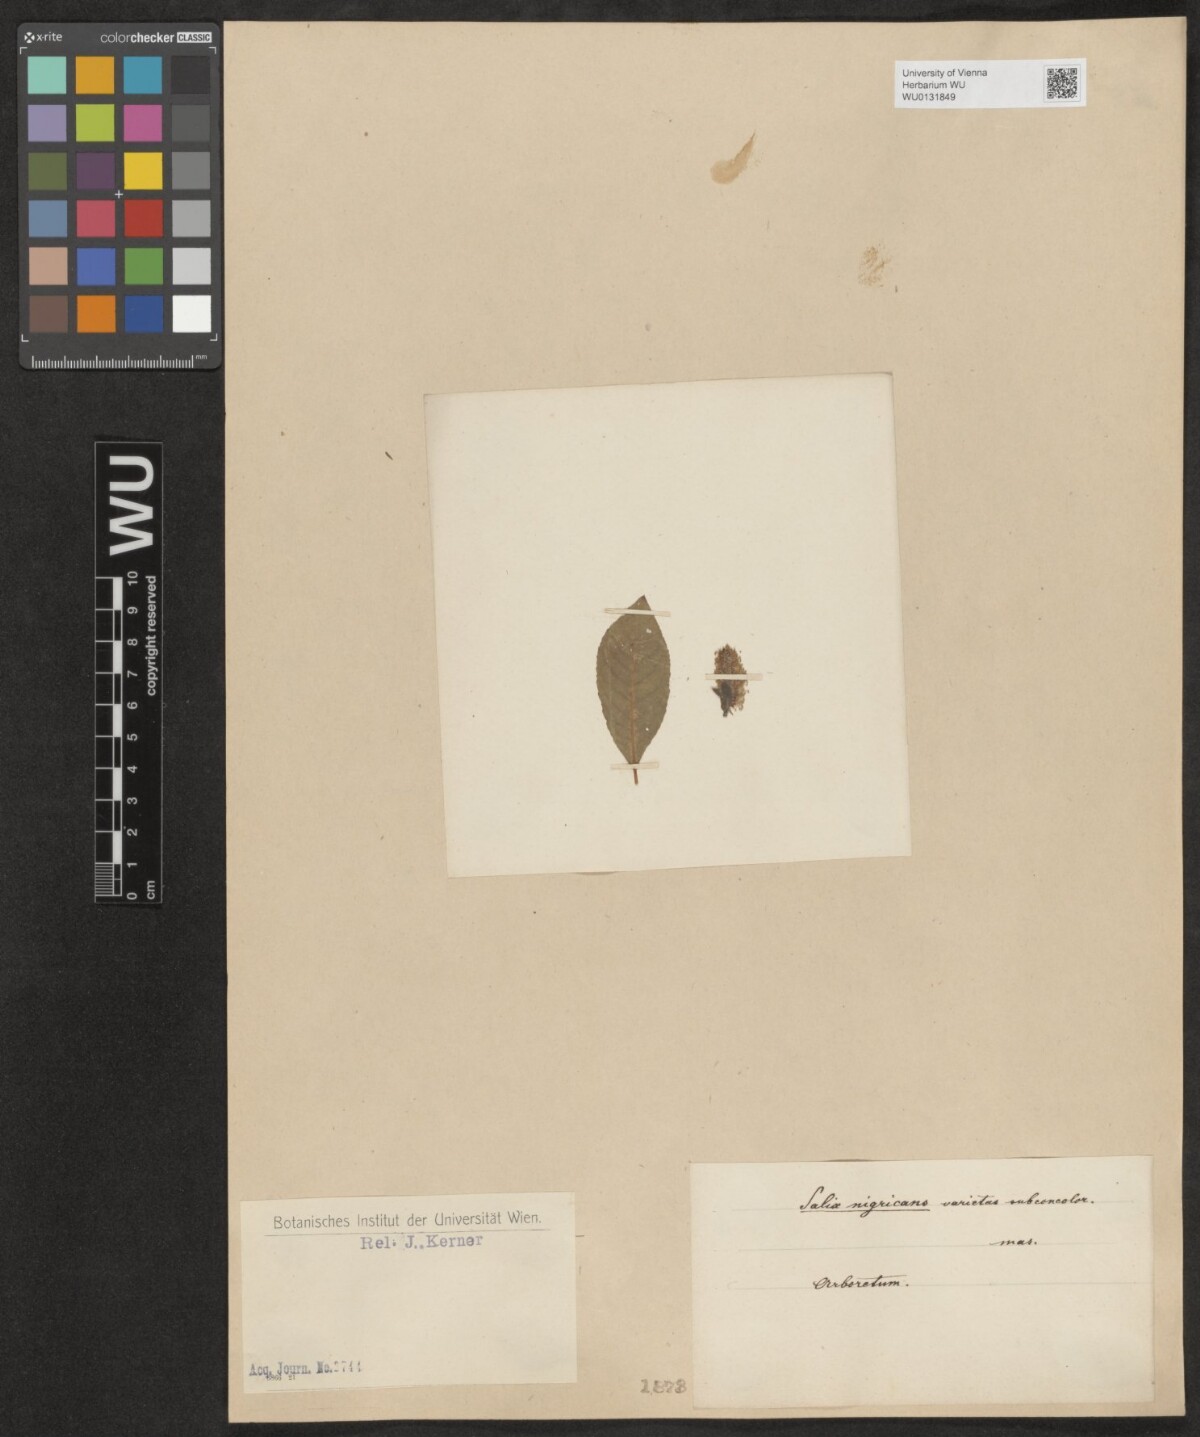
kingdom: Plantae
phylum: Tracheophyta
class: Magnoliopsida
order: Malpighiales
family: Salicaceae
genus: Salix
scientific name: Salix myrsinifolia
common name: Dark-leaved willow
